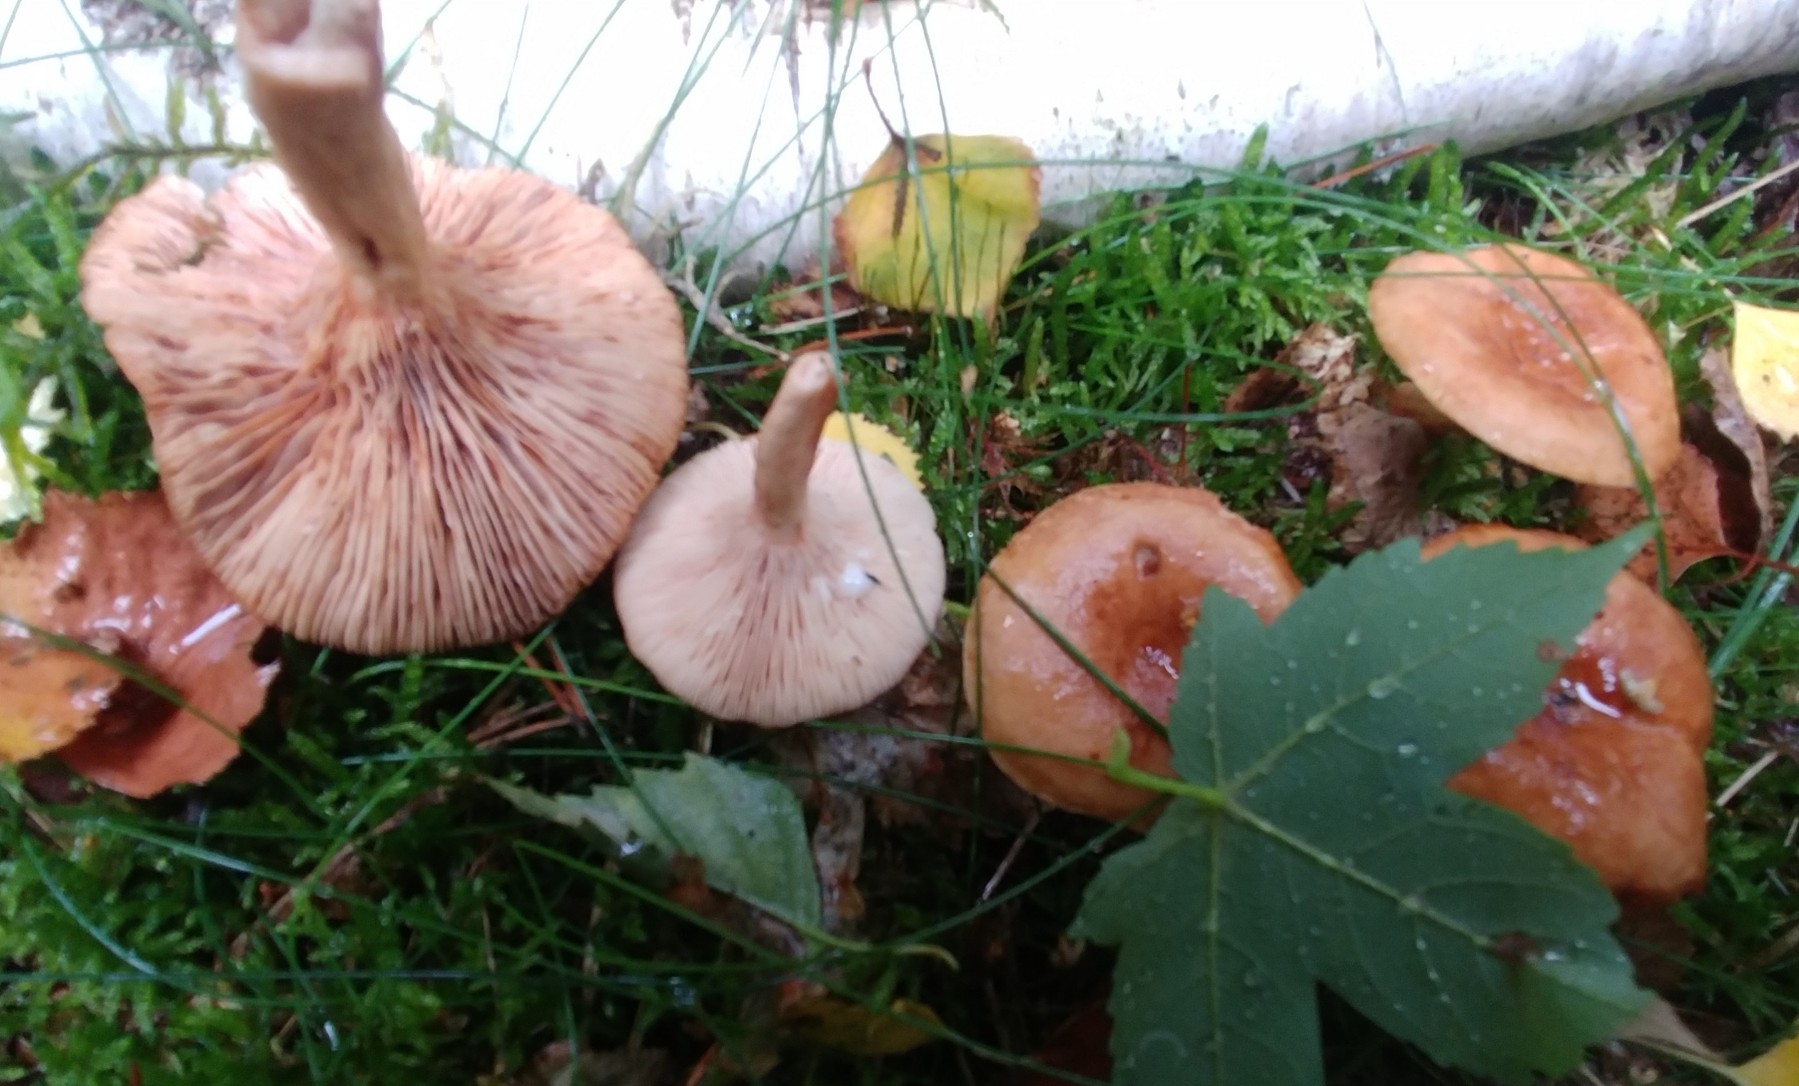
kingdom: Fungi
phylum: Basidiomycota
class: Agaricomycetes
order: Russulales
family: Russulaceae
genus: Lactarius
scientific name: Lactarius
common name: mælkehat
